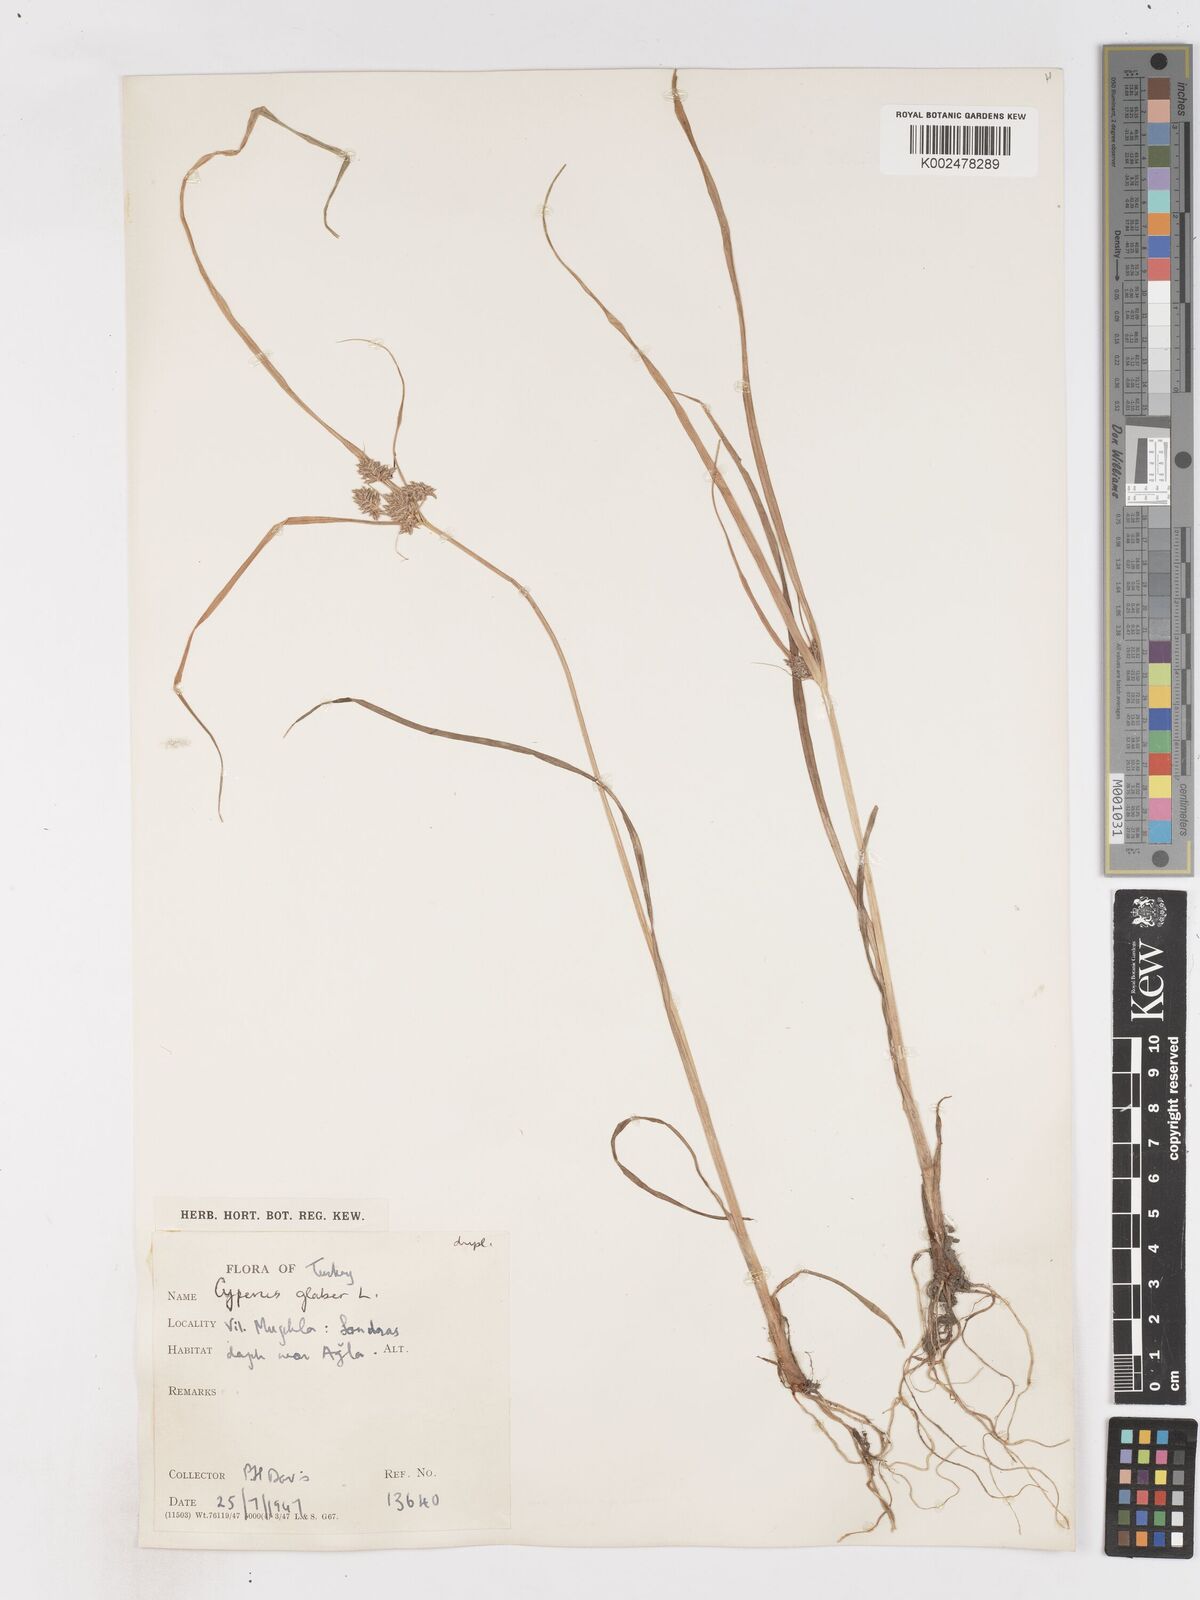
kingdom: Plantae
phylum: Tracheophyta
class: Liliopsida
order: Poales
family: Cyperaceae
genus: Cyperus
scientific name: Cyperus glaber
